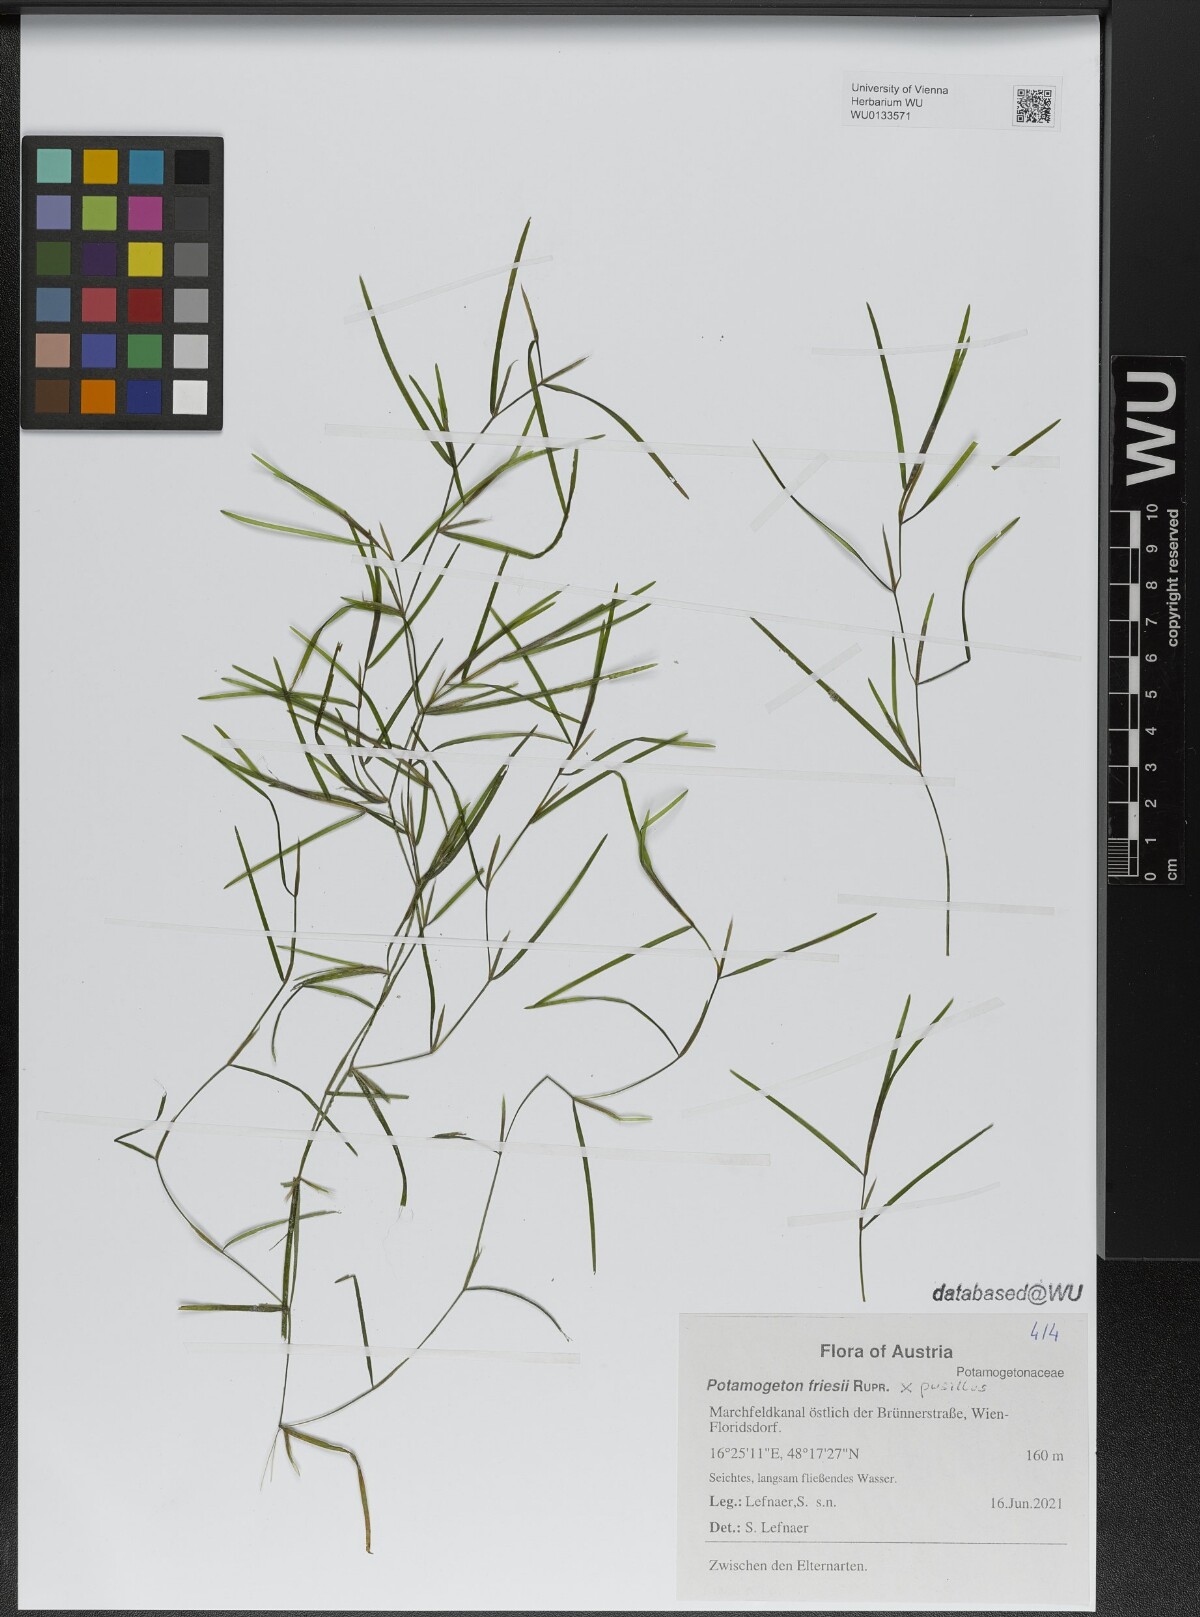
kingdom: Plantae
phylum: Tracheophyta
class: Liliopsida
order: Alismatales
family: Potamogetonaceae
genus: Potamogeton
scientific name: Potamogeton friesii
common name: Flat-stalked pondweed
